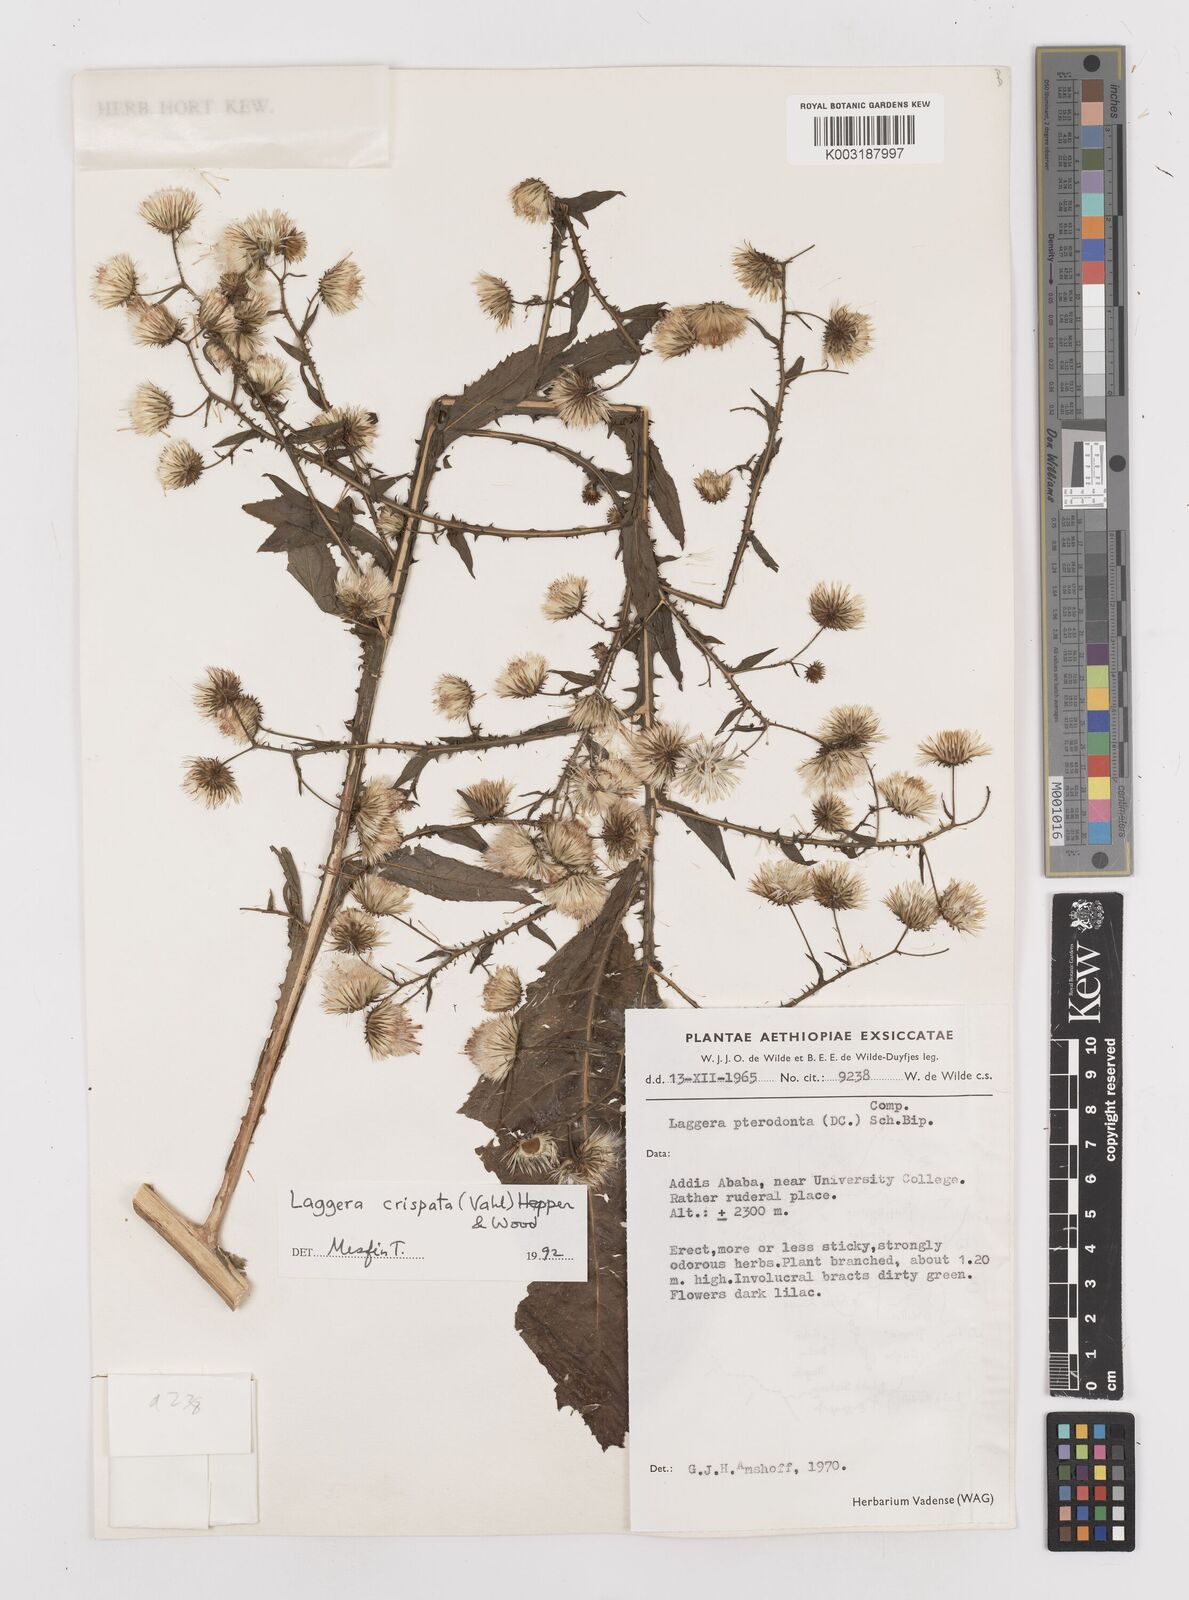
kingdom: Plantae
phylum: Tracheophyta
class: Magnoliopsida
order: Asterales
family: Asteraceae
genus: Laggera
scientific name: Laggera crispata
